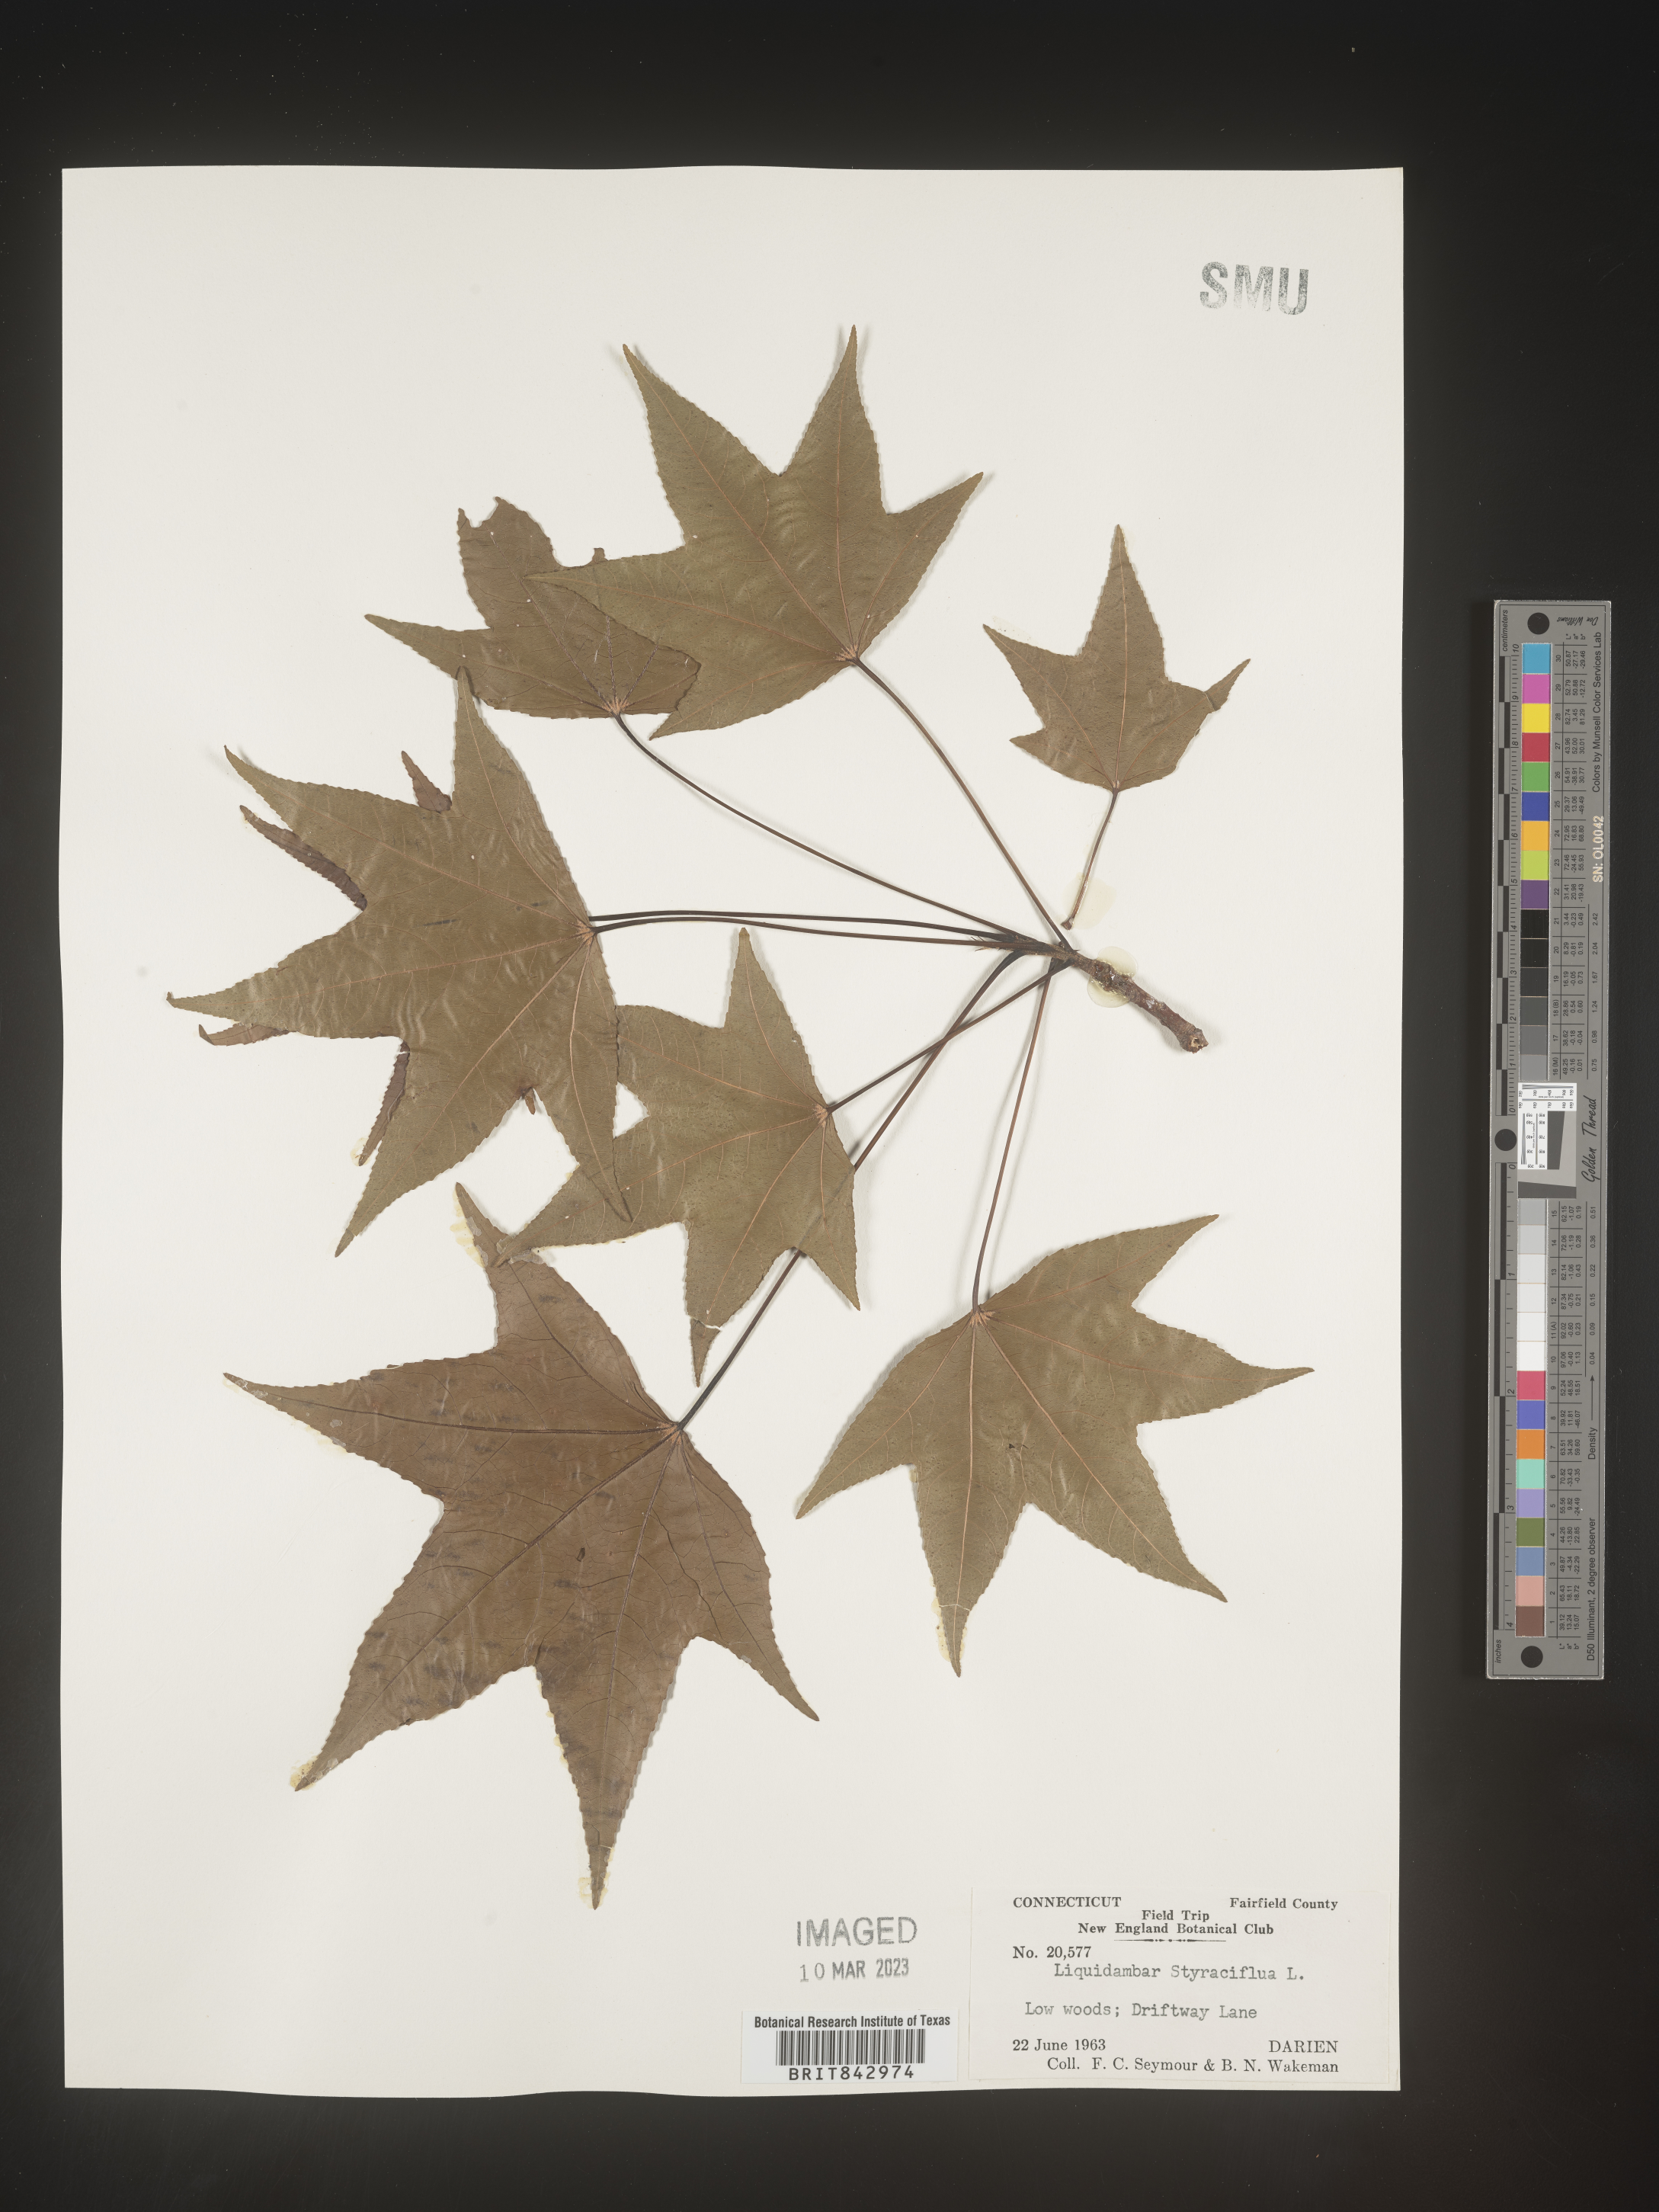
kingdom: Plantae
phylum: Tracheophyta
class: Magnoliopsida
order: Saxifragales
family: Altingiaceae
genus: Liquidambar
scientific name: Liquidambar
